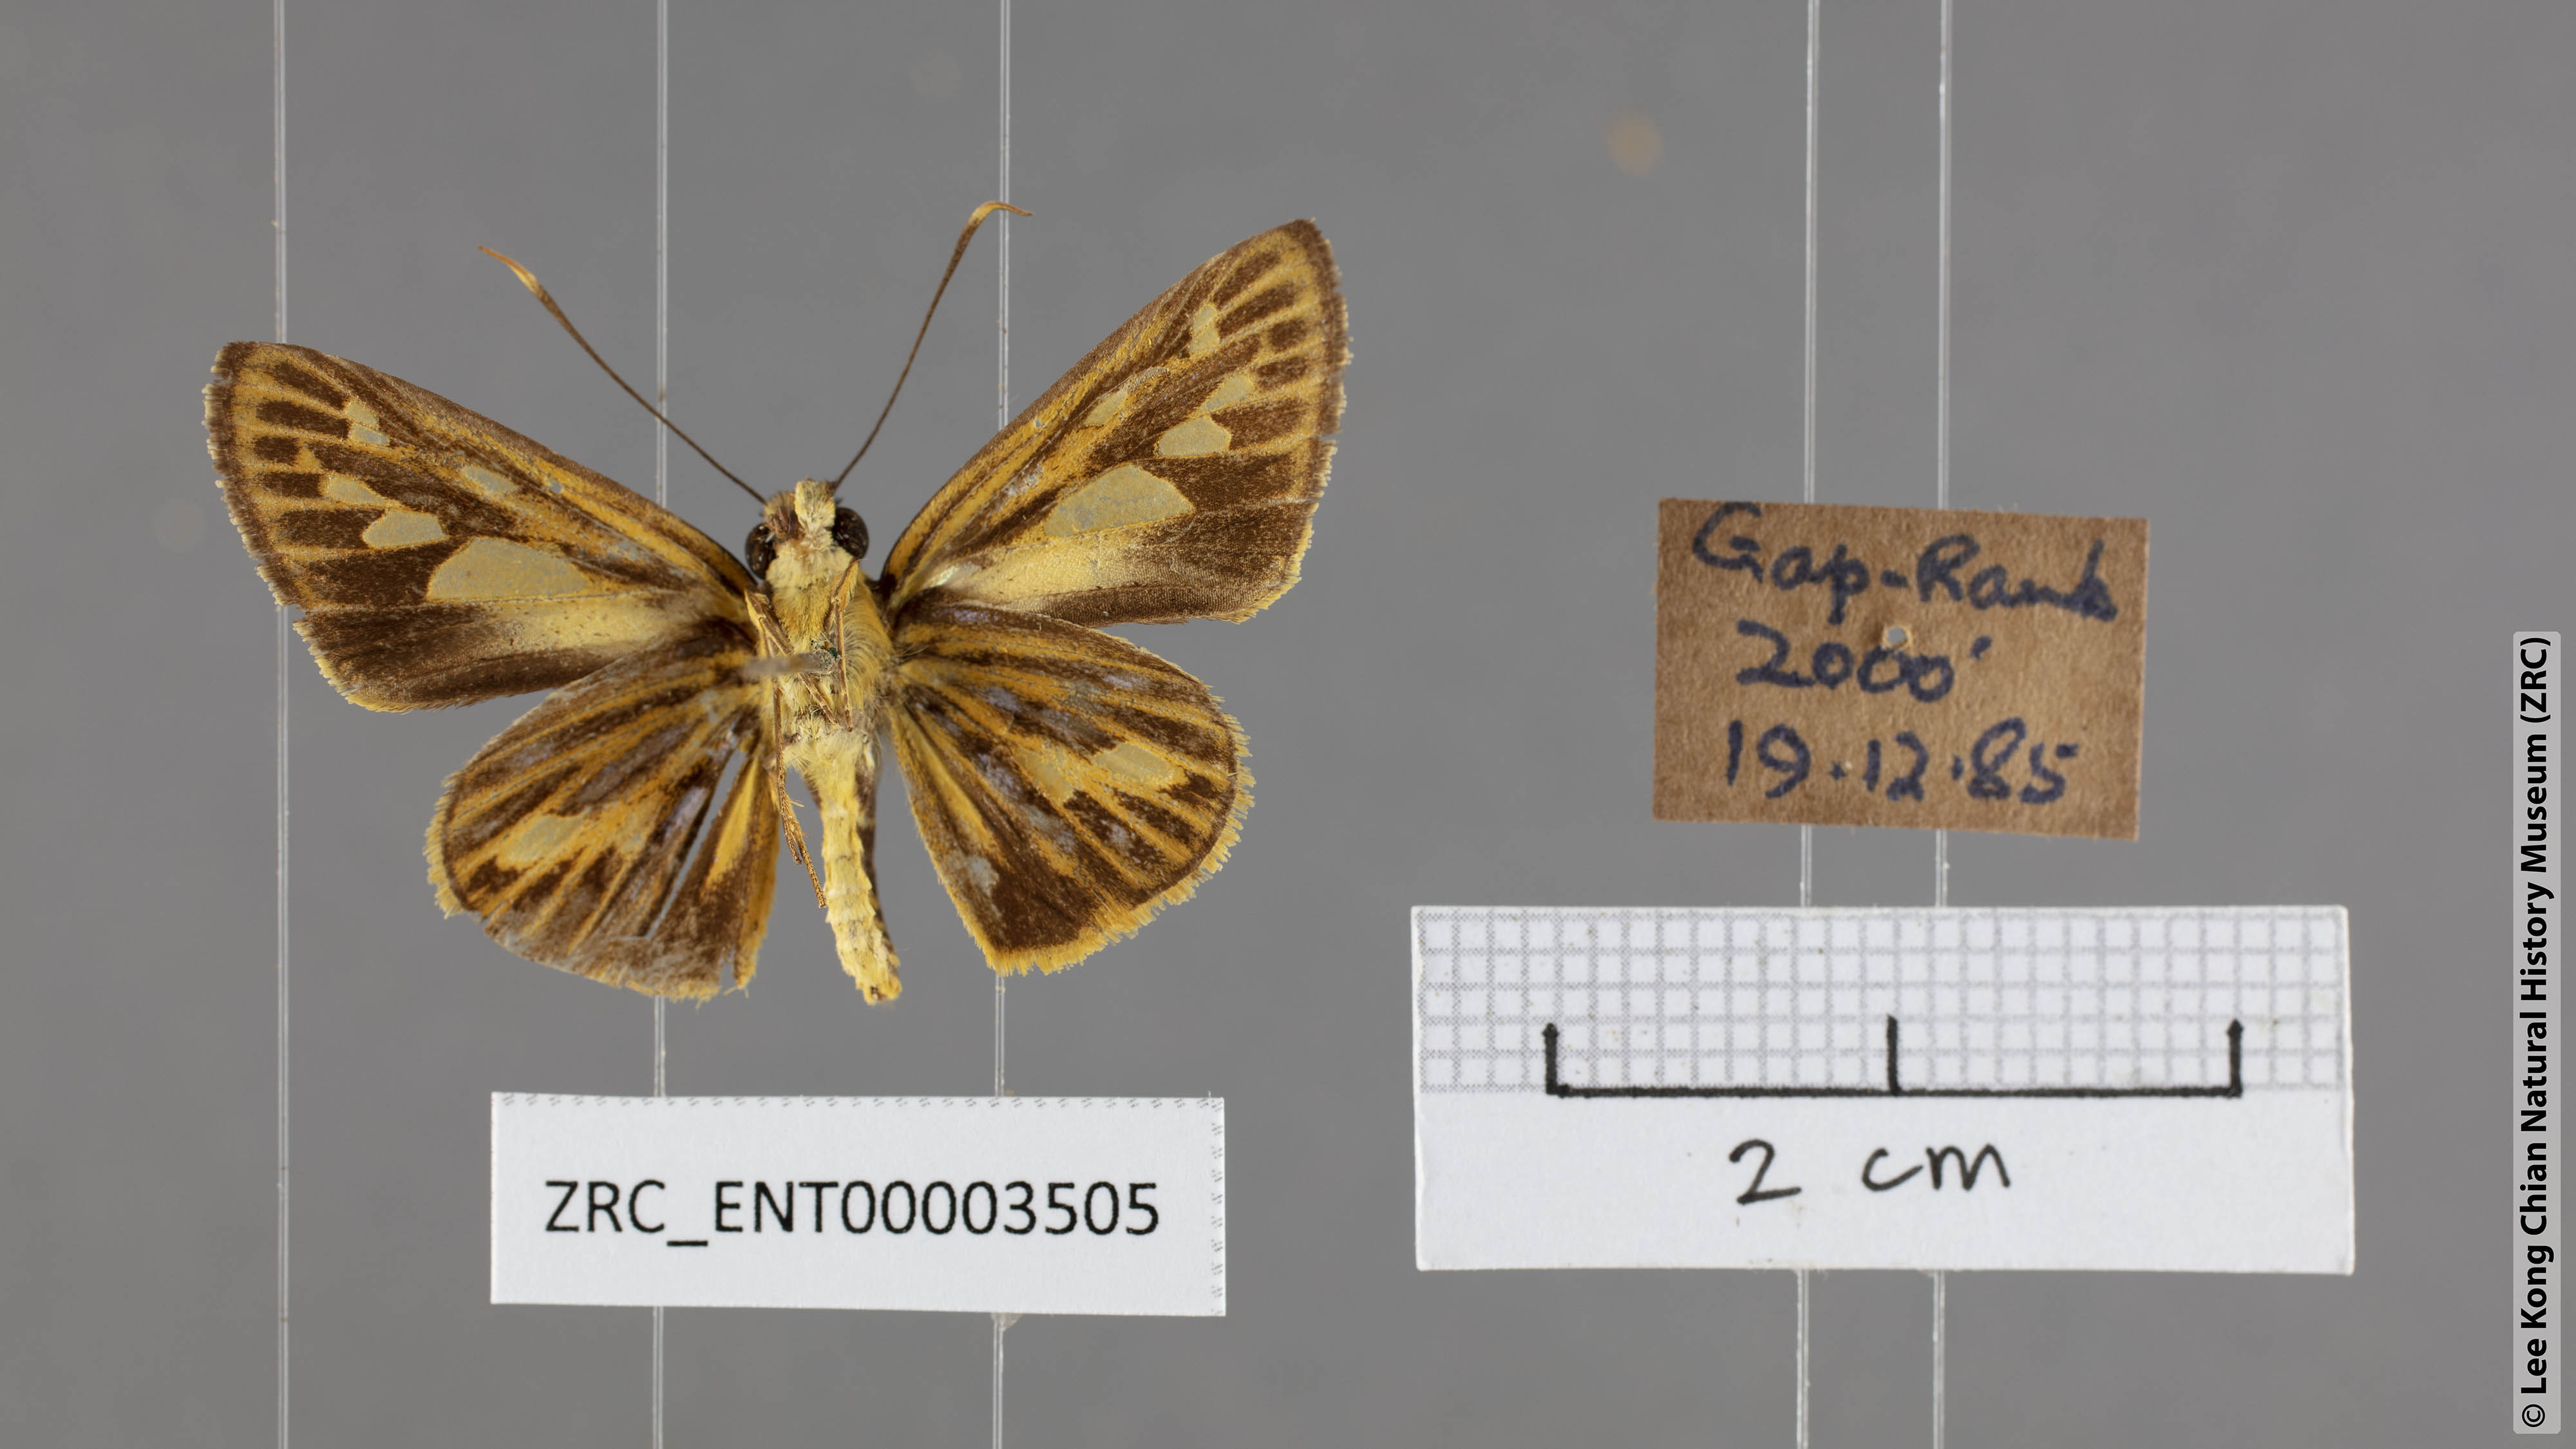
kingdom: Animalia
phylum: Arthropoda
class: Insecta
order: Lepidoptera
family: Hesperiidae
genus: Pyroneura
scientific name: Pyroneura flavia
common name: Lesser lancer
